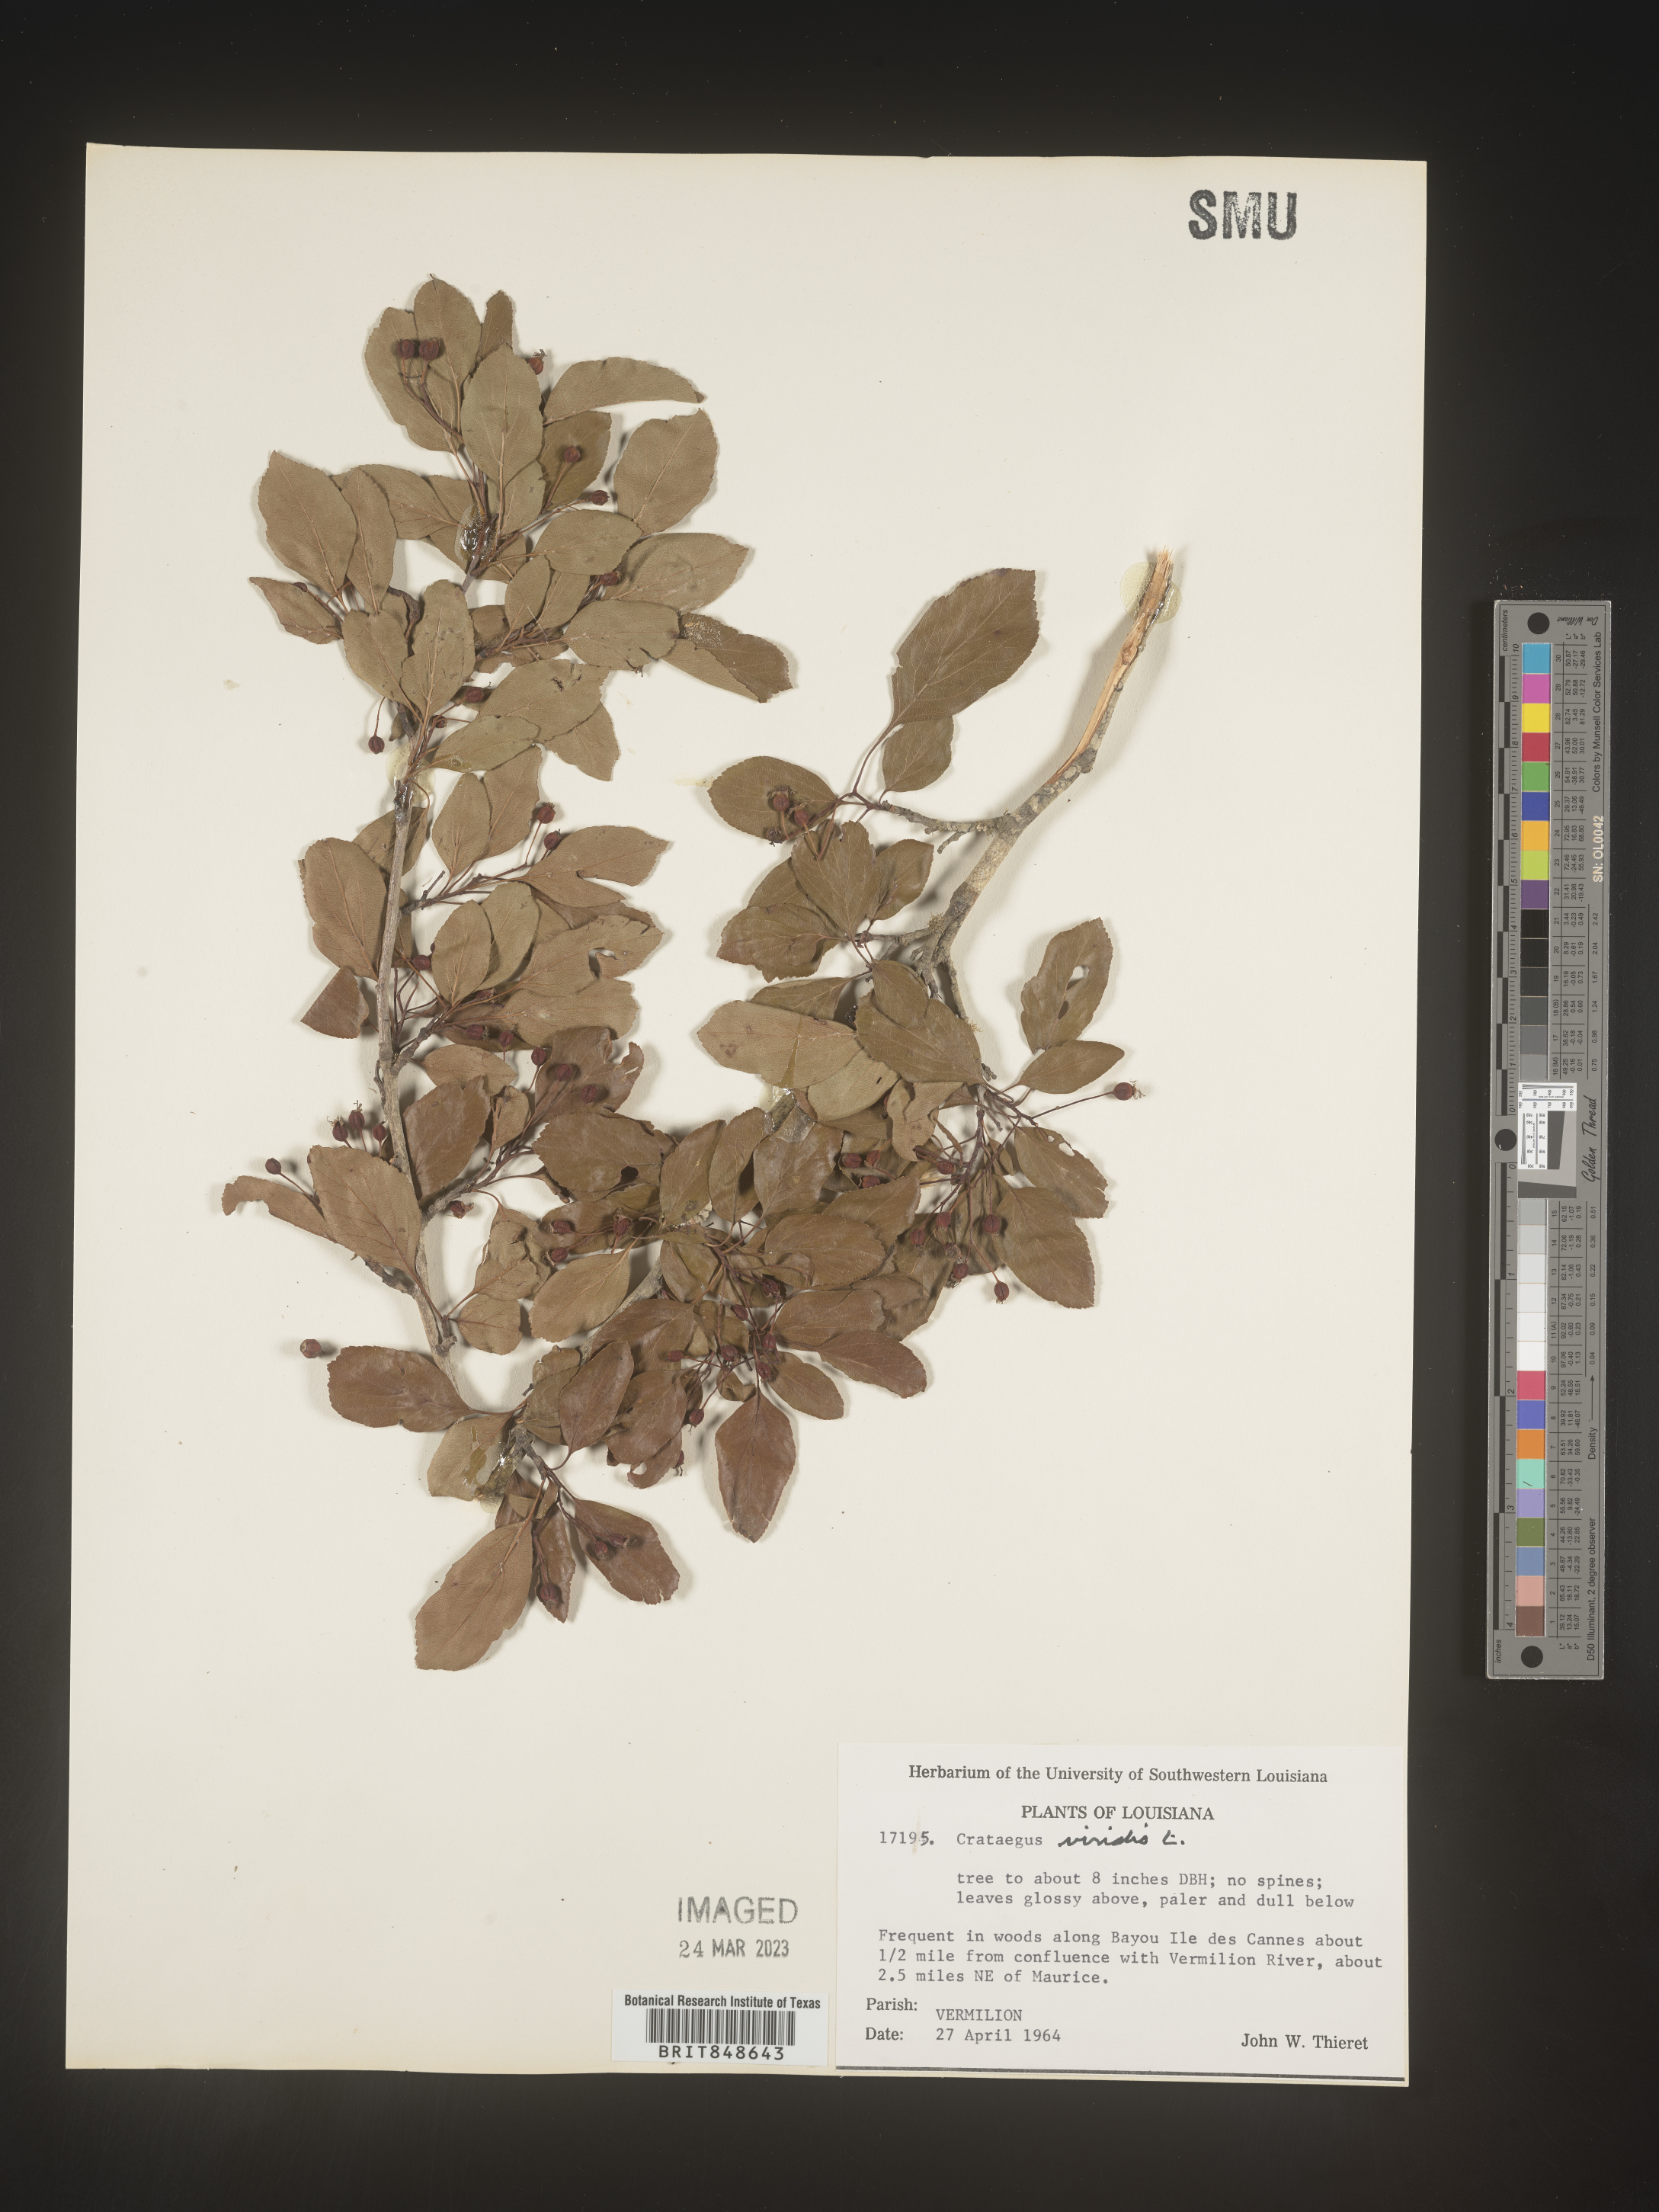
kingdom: Plantae
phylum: Tracheophyta
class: Magnoliopsida
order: Rosales
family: Rosaceae
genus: Crataegus
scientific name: Crataegus viridis
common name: Southernthorn
